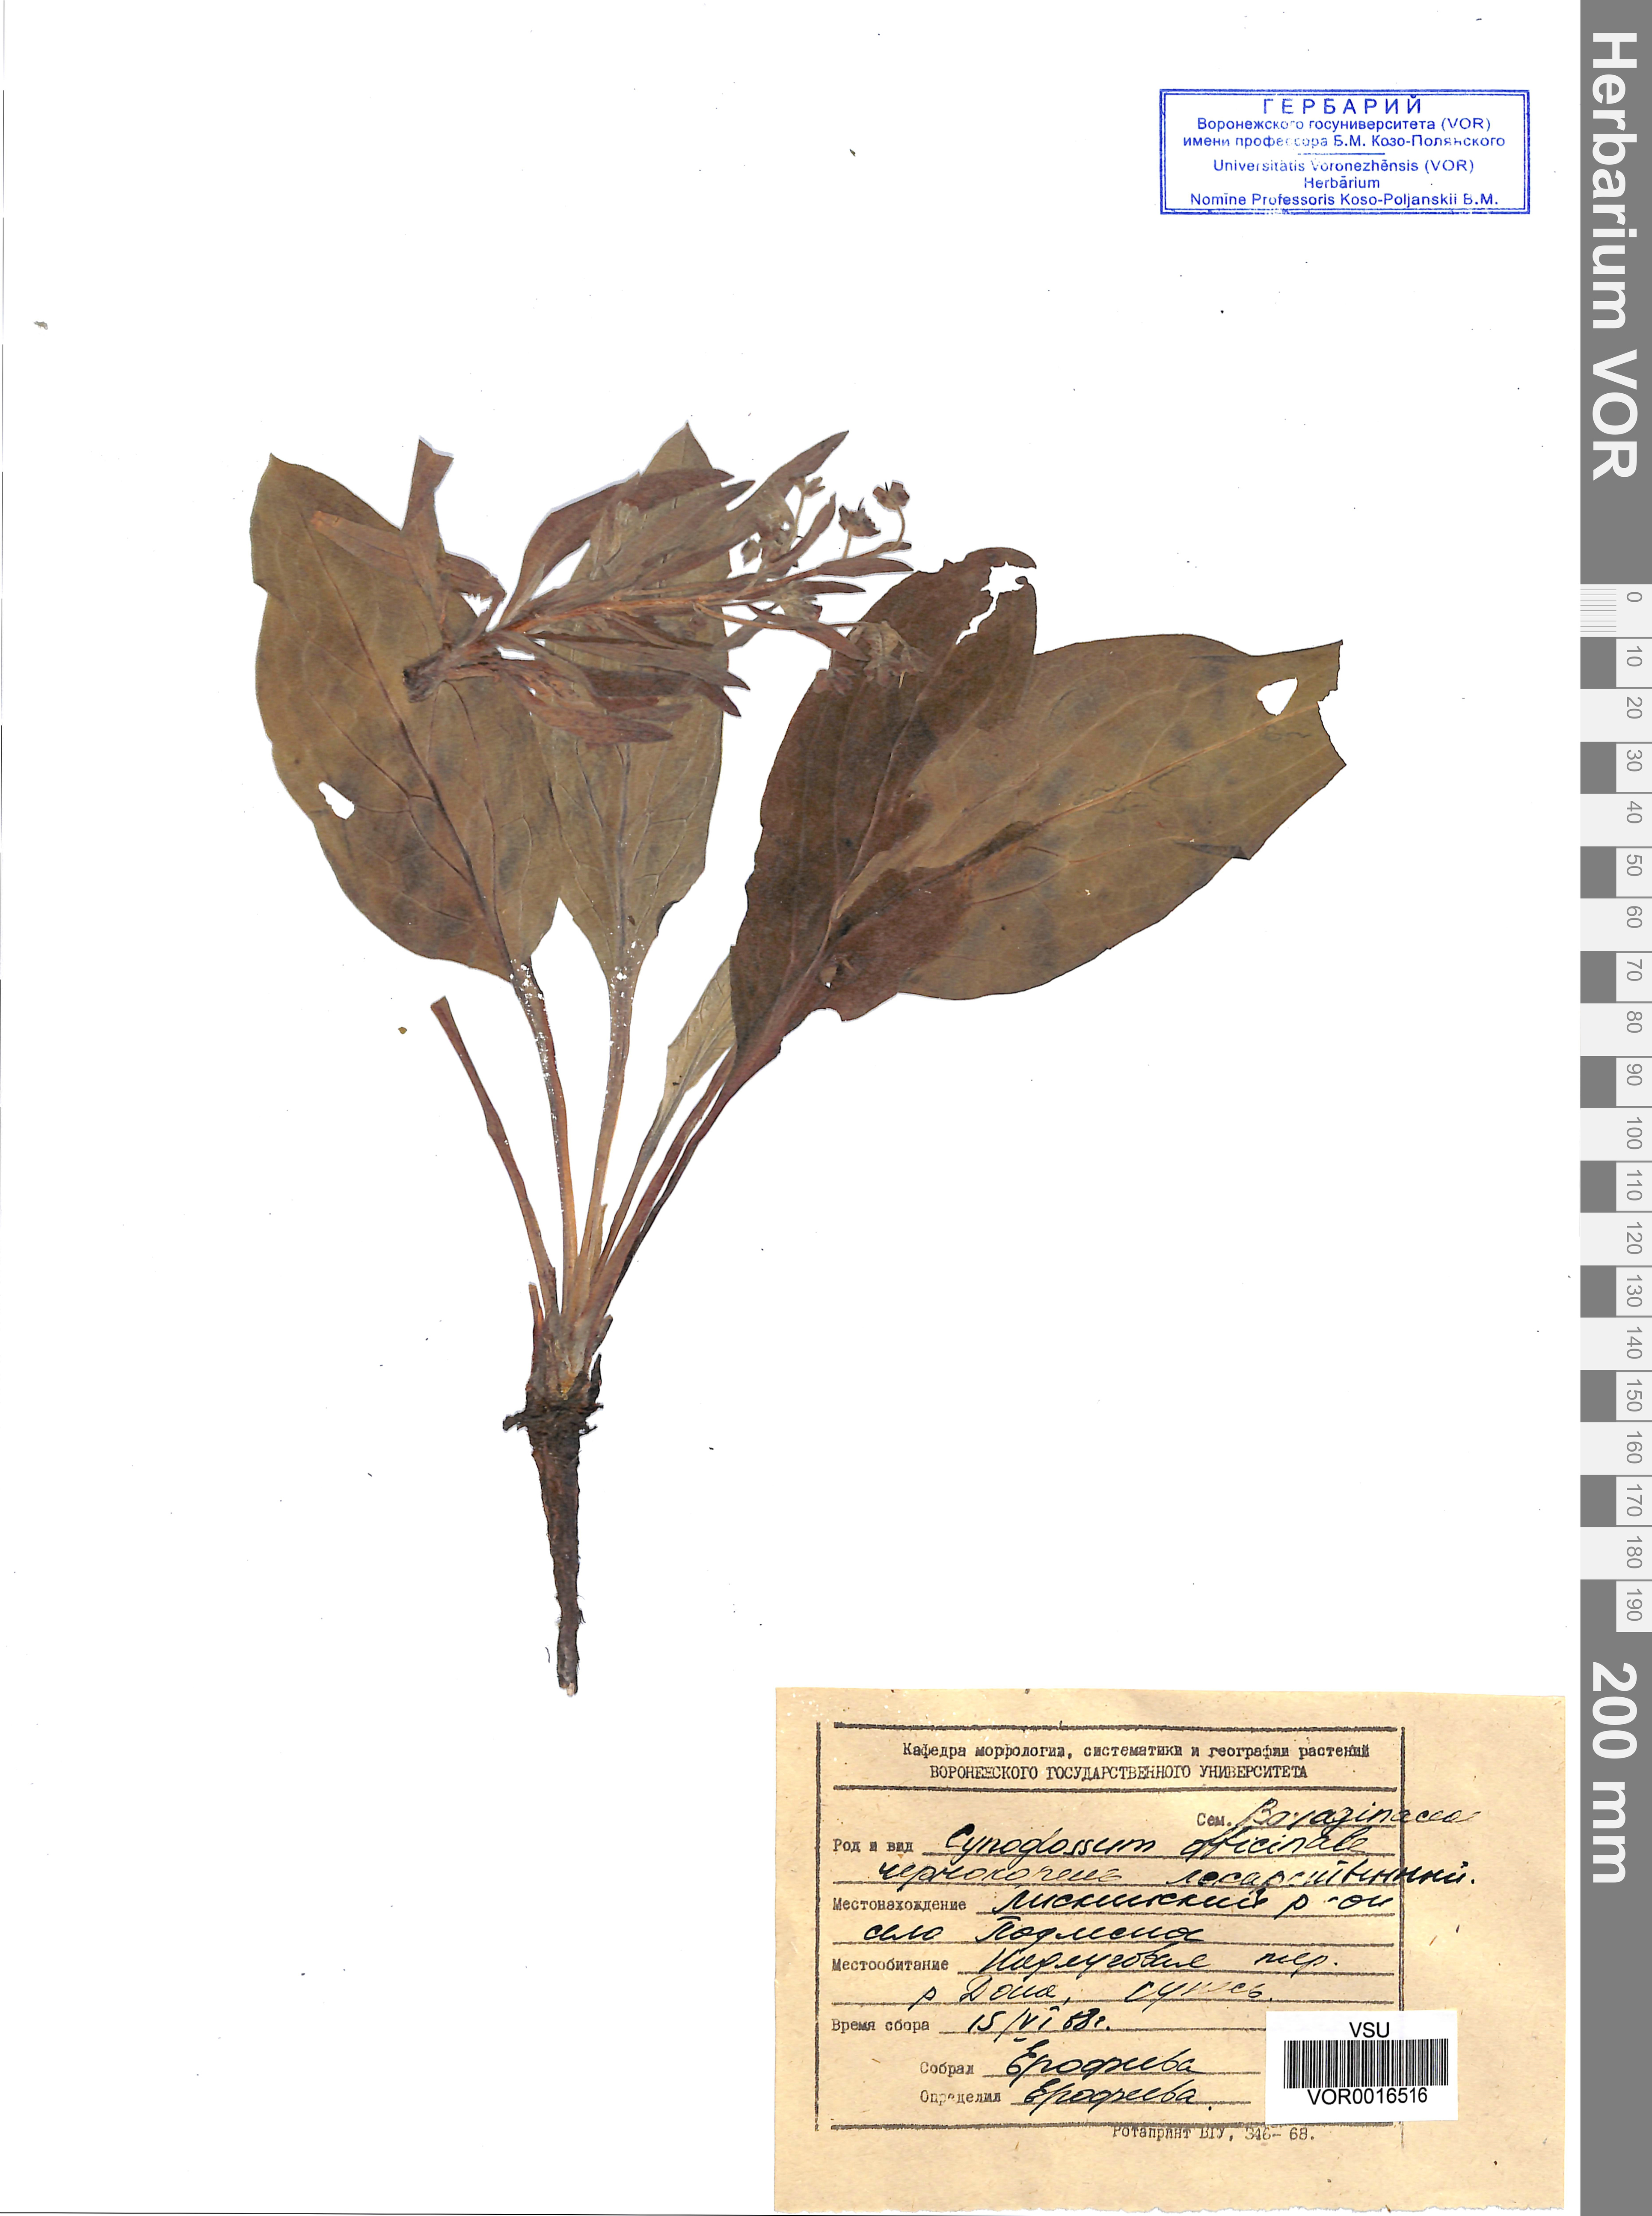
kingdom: Plantae
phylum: Tracheophyta
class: Magnoliopsida
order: Boraginales
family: Boraginaceae
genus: Cynoglossum
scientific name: Cynoglossum officinale
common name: Hound's-tongue
